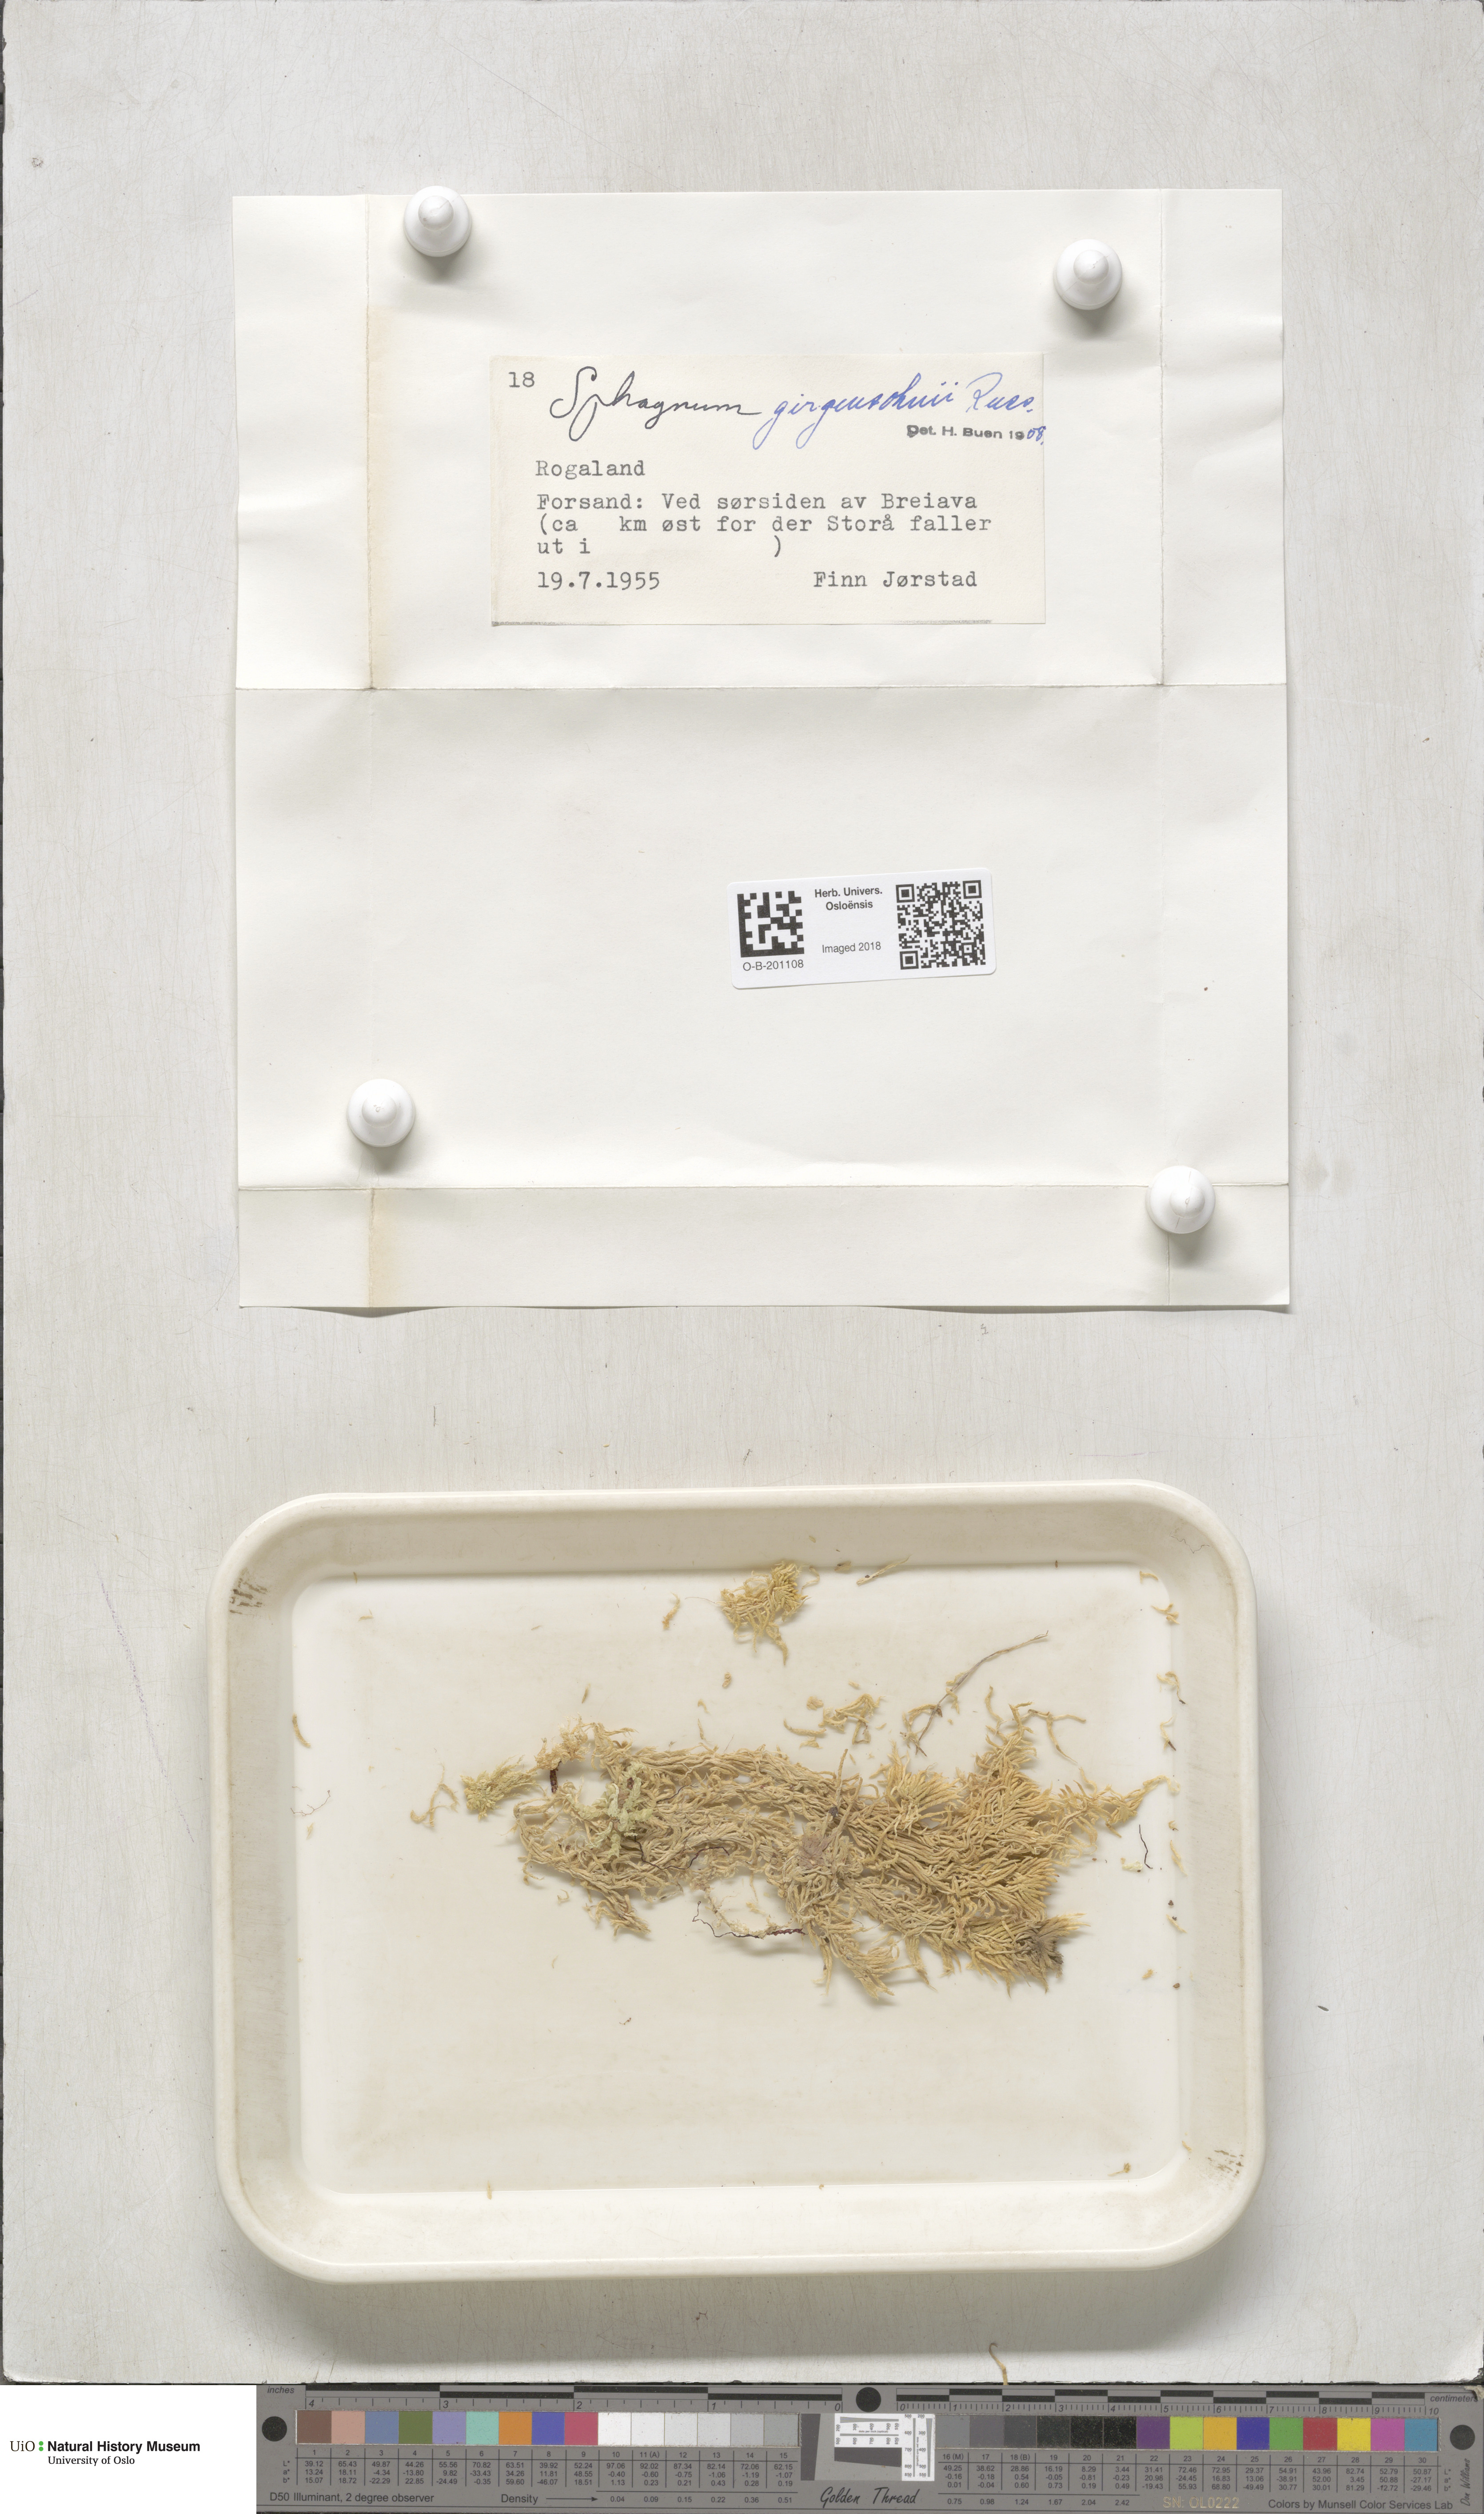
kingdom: Plantae
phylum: Bryophyta
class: Sphagnopsida
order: Sphagnales
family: Sphagnaceae
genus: Sphagnum
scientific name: Sphagnum girgensohnii
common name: Girgensohn's peat moss
